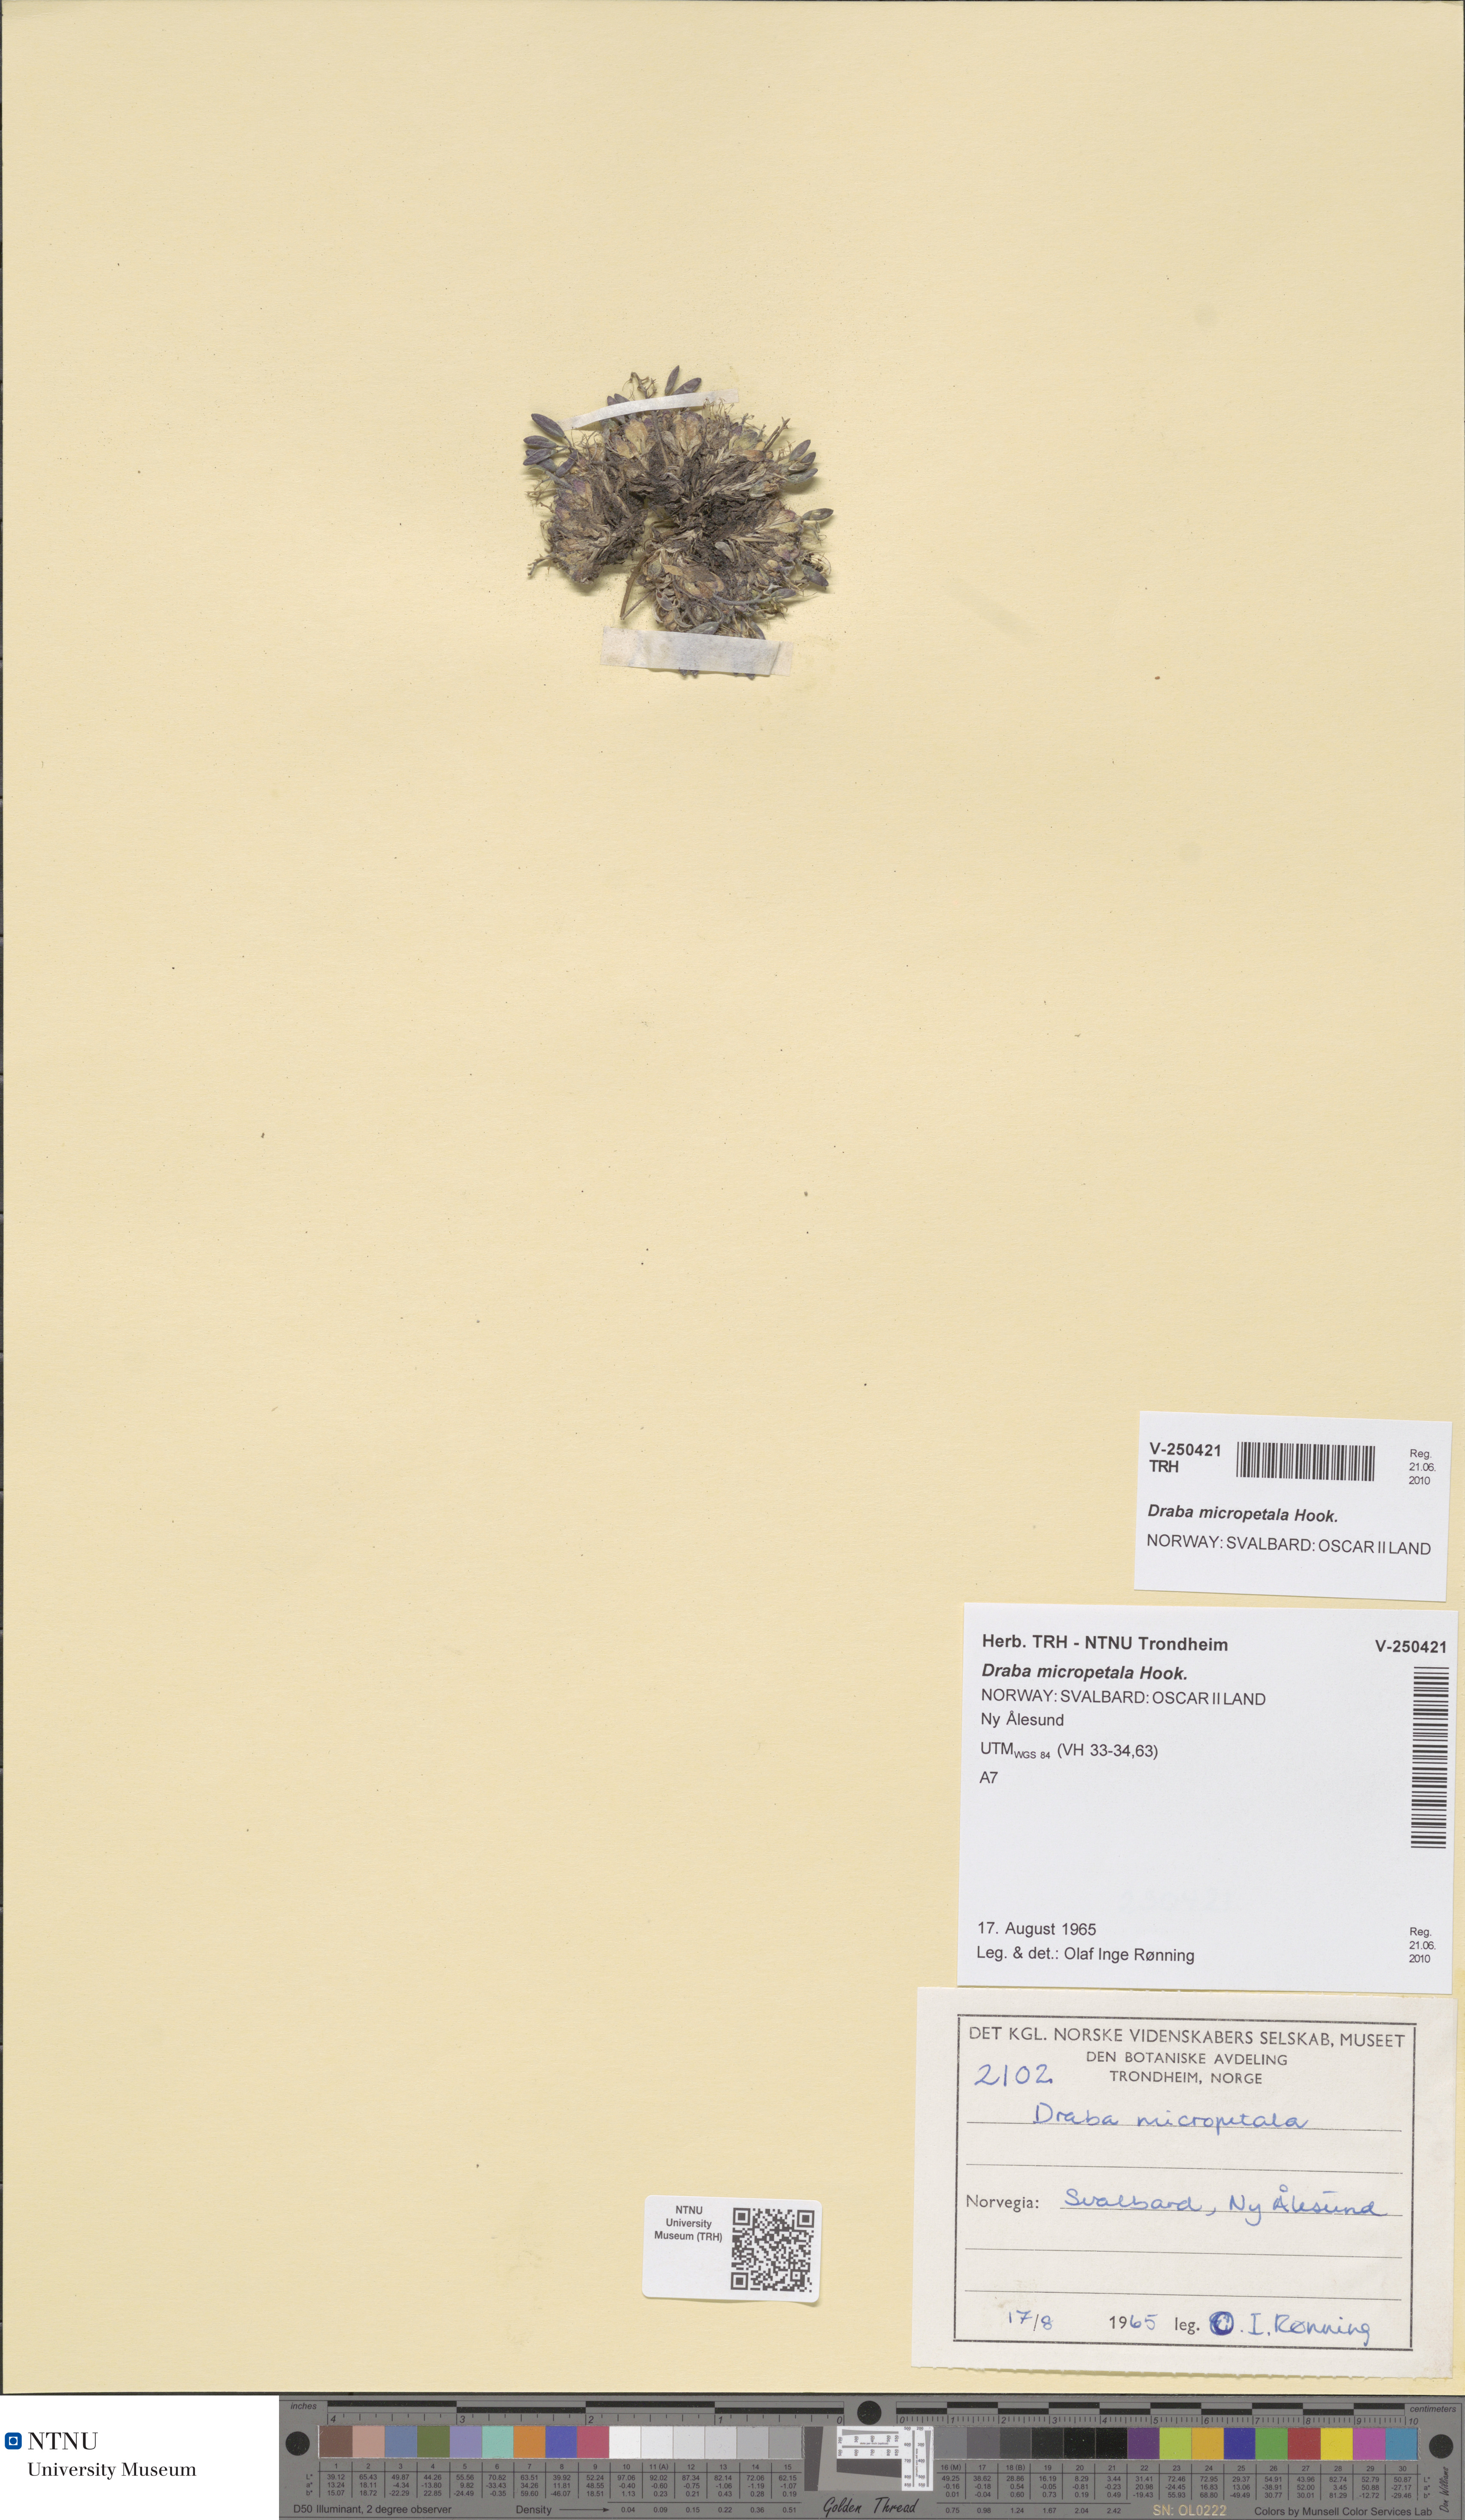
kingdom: Plantae
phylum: Tracheophyta
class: Magnoliopsida
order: Brassicales
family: Brassicaceae
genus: Draba
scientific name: Draba micropetala
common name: Small-flowered draba
